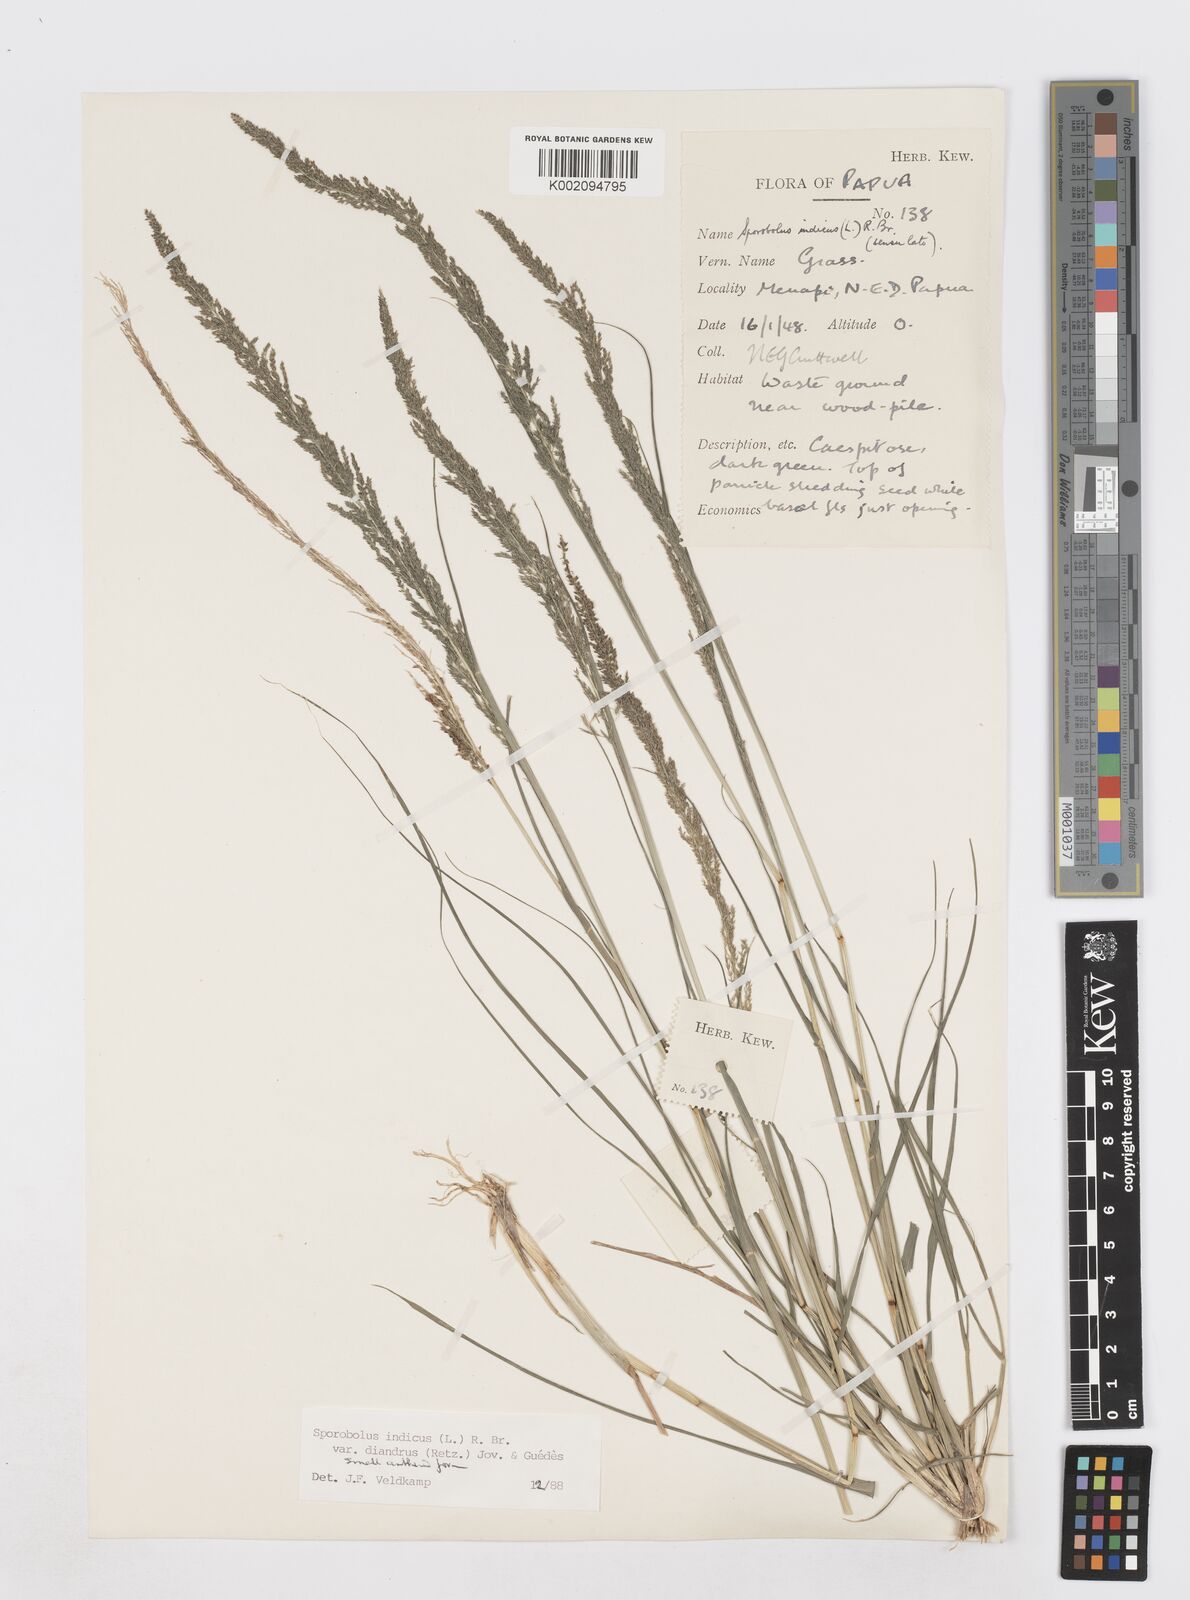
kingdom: Plantae
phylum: Tracheophyta
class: Liliopsida
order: Poales
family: Poaceae
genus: Sporobolus
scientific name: Sporobolus diandrus
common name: Tussock dropseed
